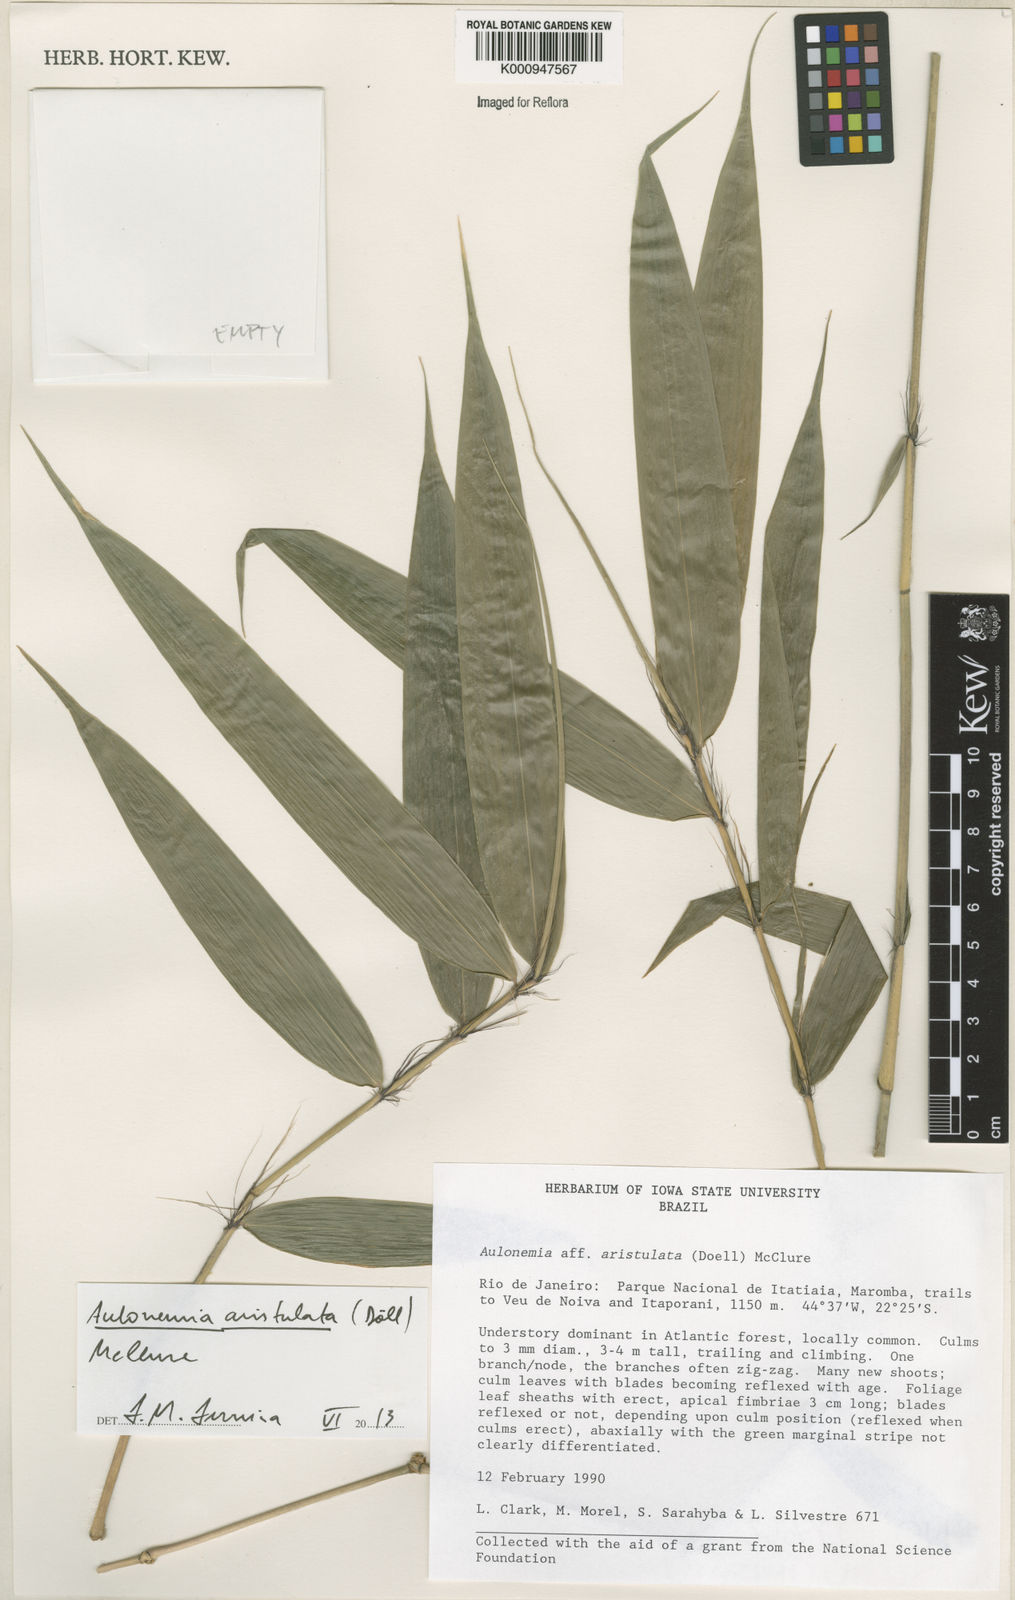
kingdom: Plantae
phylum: Tracheophyta
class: Liliopsida
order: Poales
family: Poaceae
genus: Aulonemia
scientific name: Aulonemia
